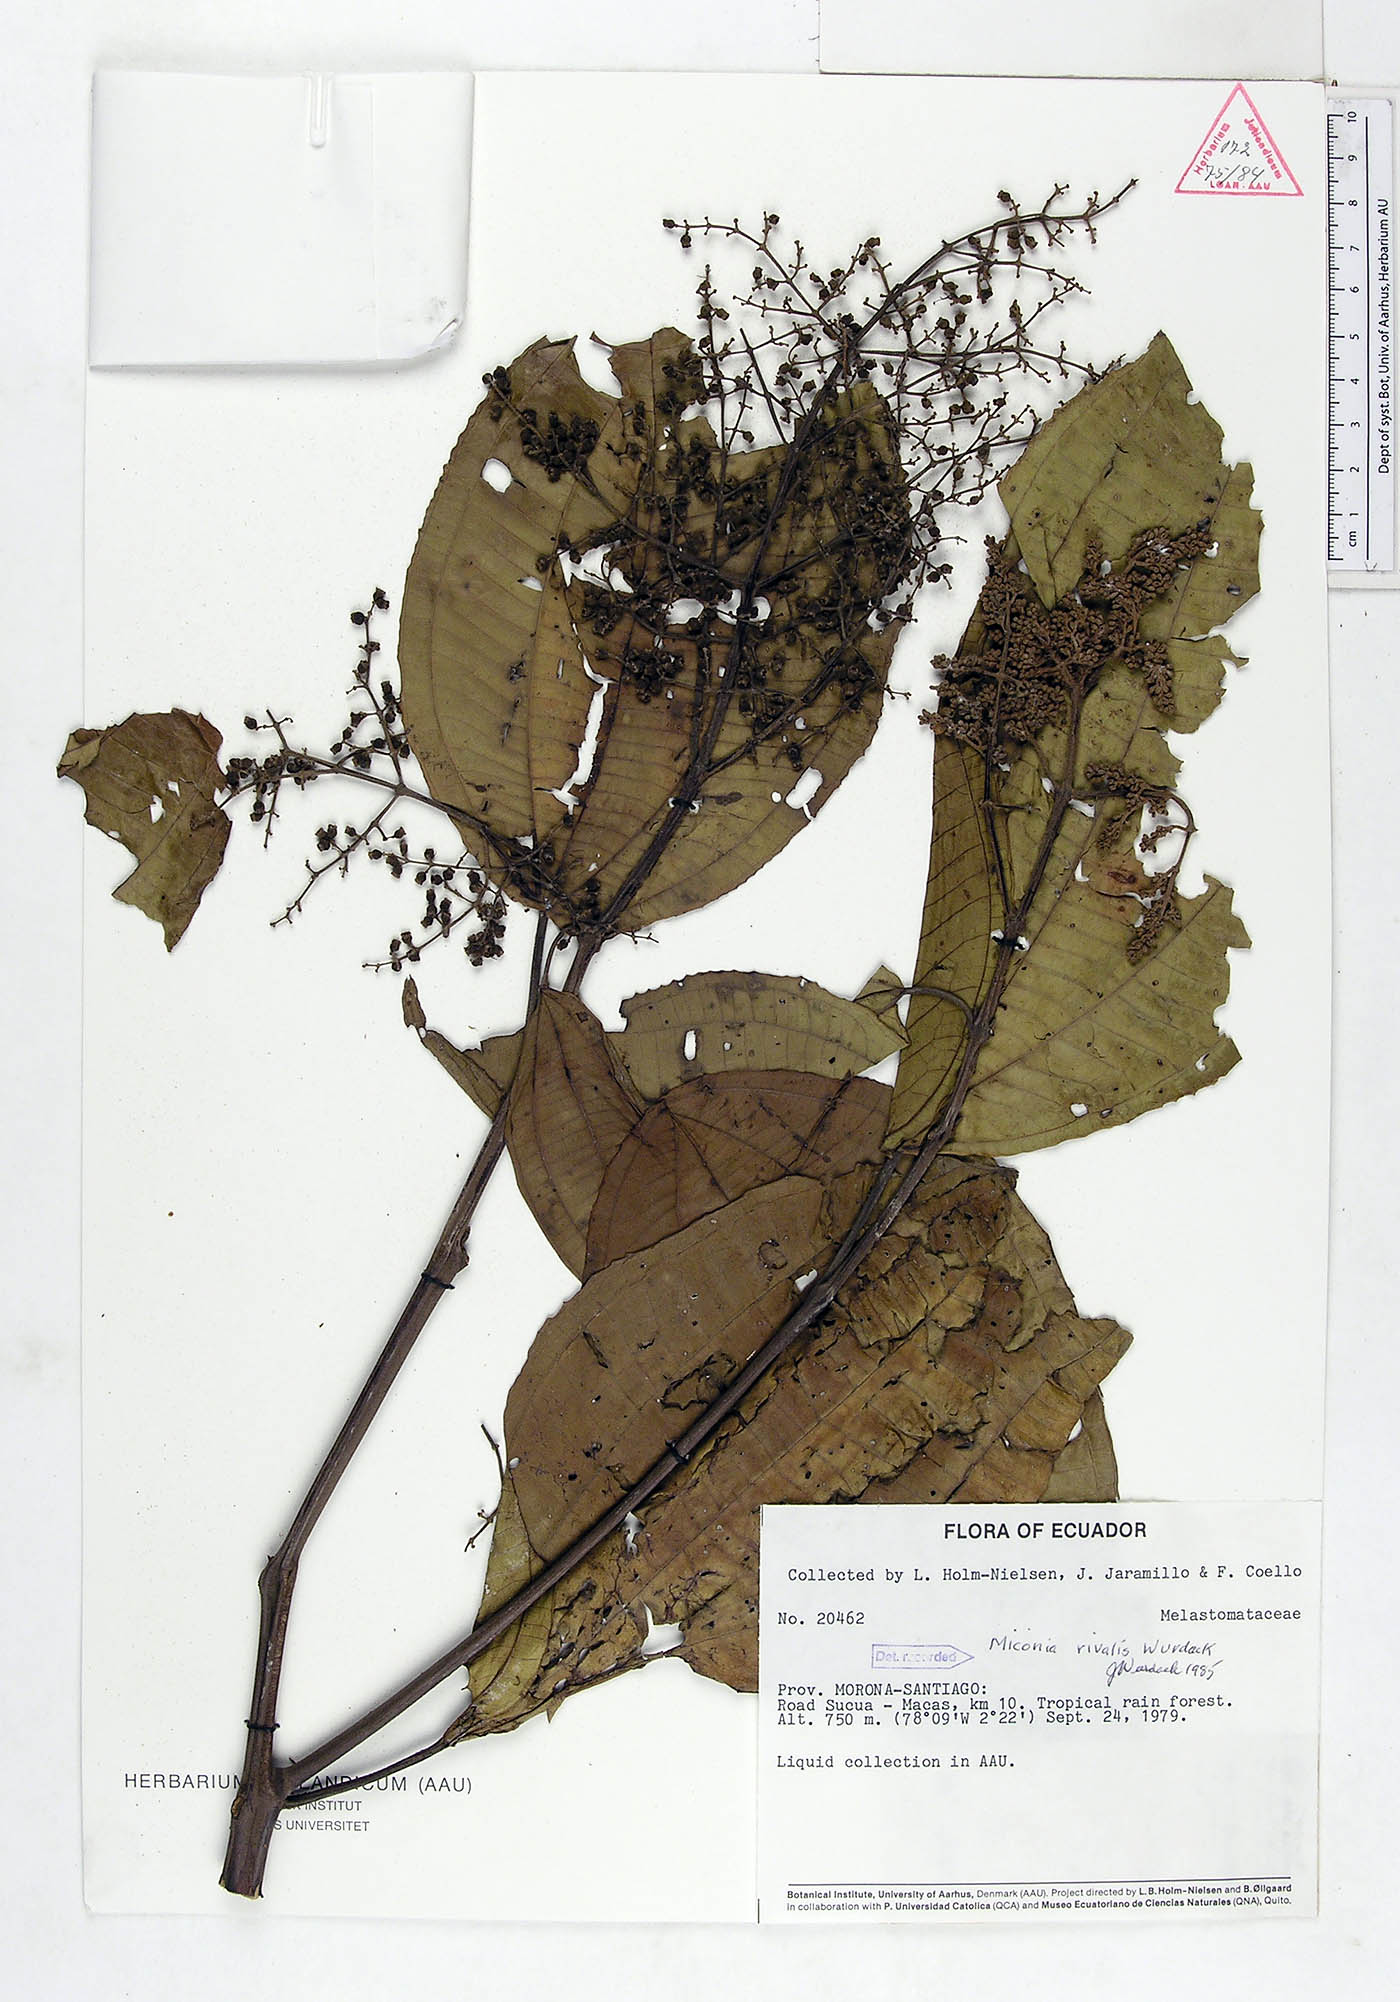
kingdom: Plantae
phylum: Tracheophyta
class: Magnoliopsida
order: Myrtales
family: Melastomataceae
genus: Miconia
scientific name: Miconia rivalis
